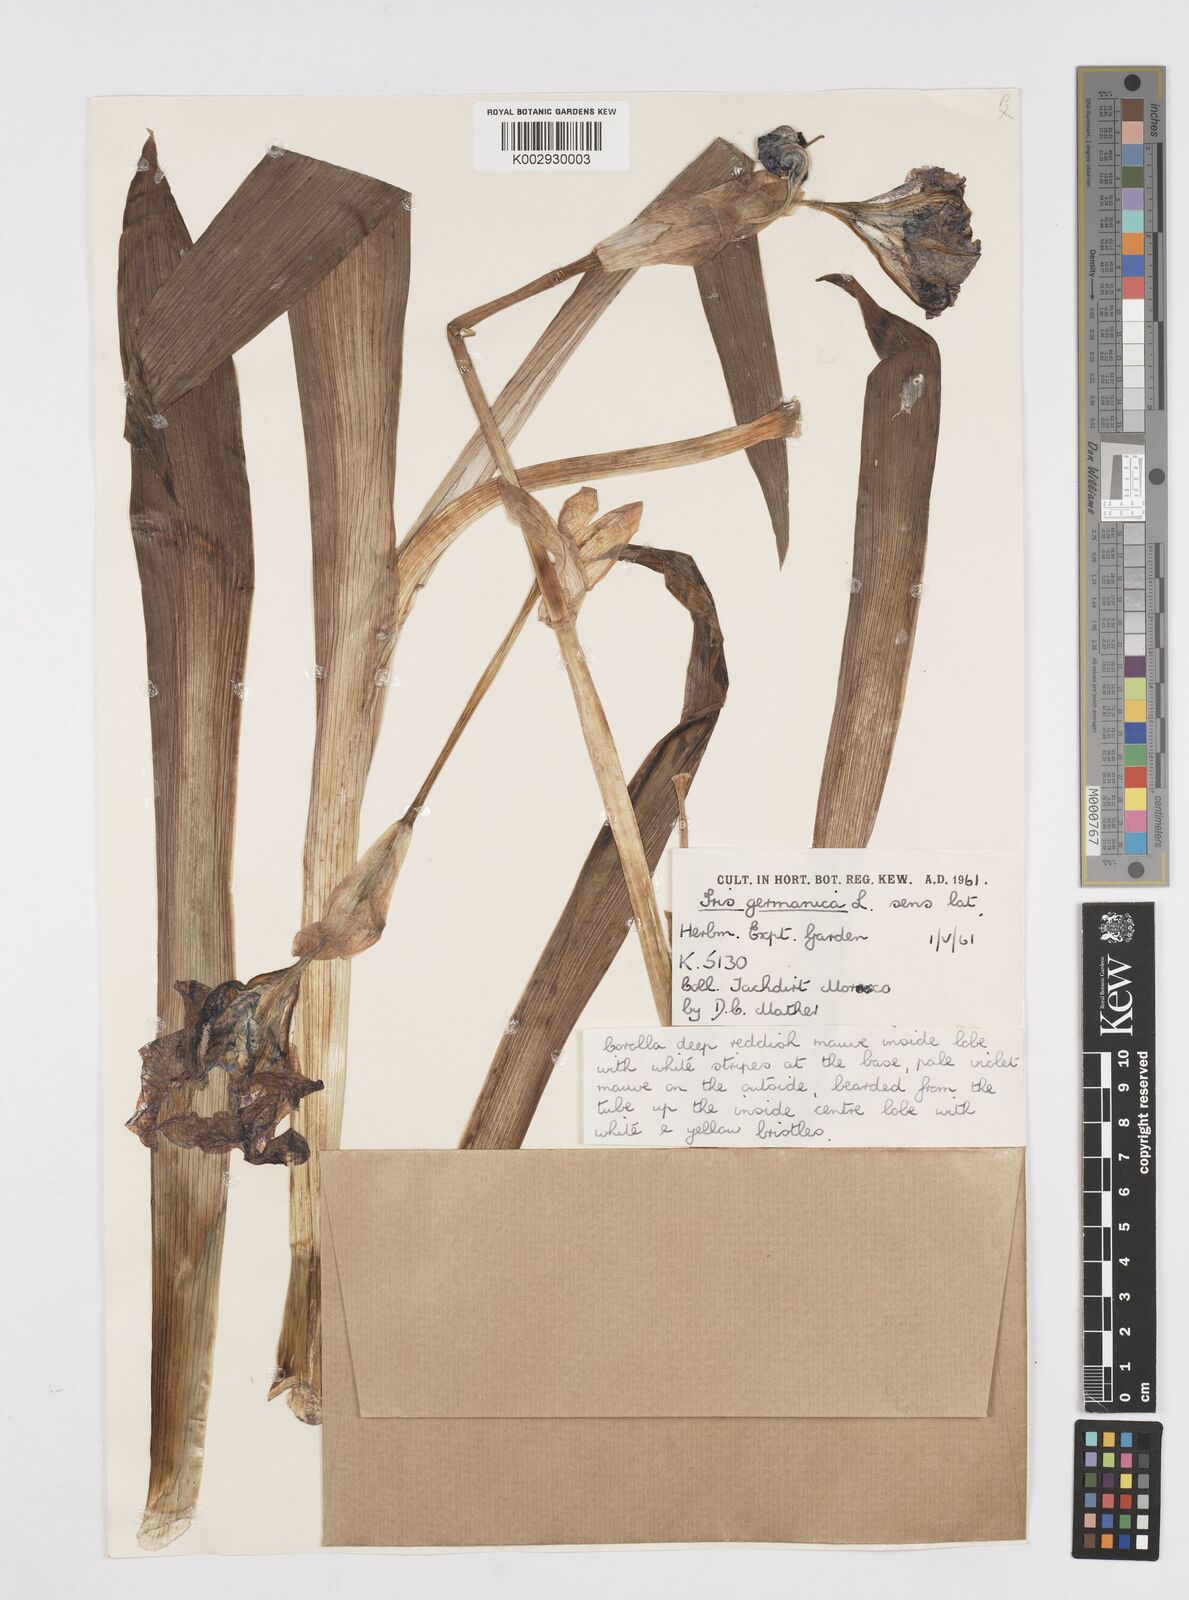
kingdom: Plantae
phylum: Tracheophyta
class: Liliopsida
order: Asparagales
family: Iridaceae
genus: Iris
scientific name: Iris germanica
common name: German iris
